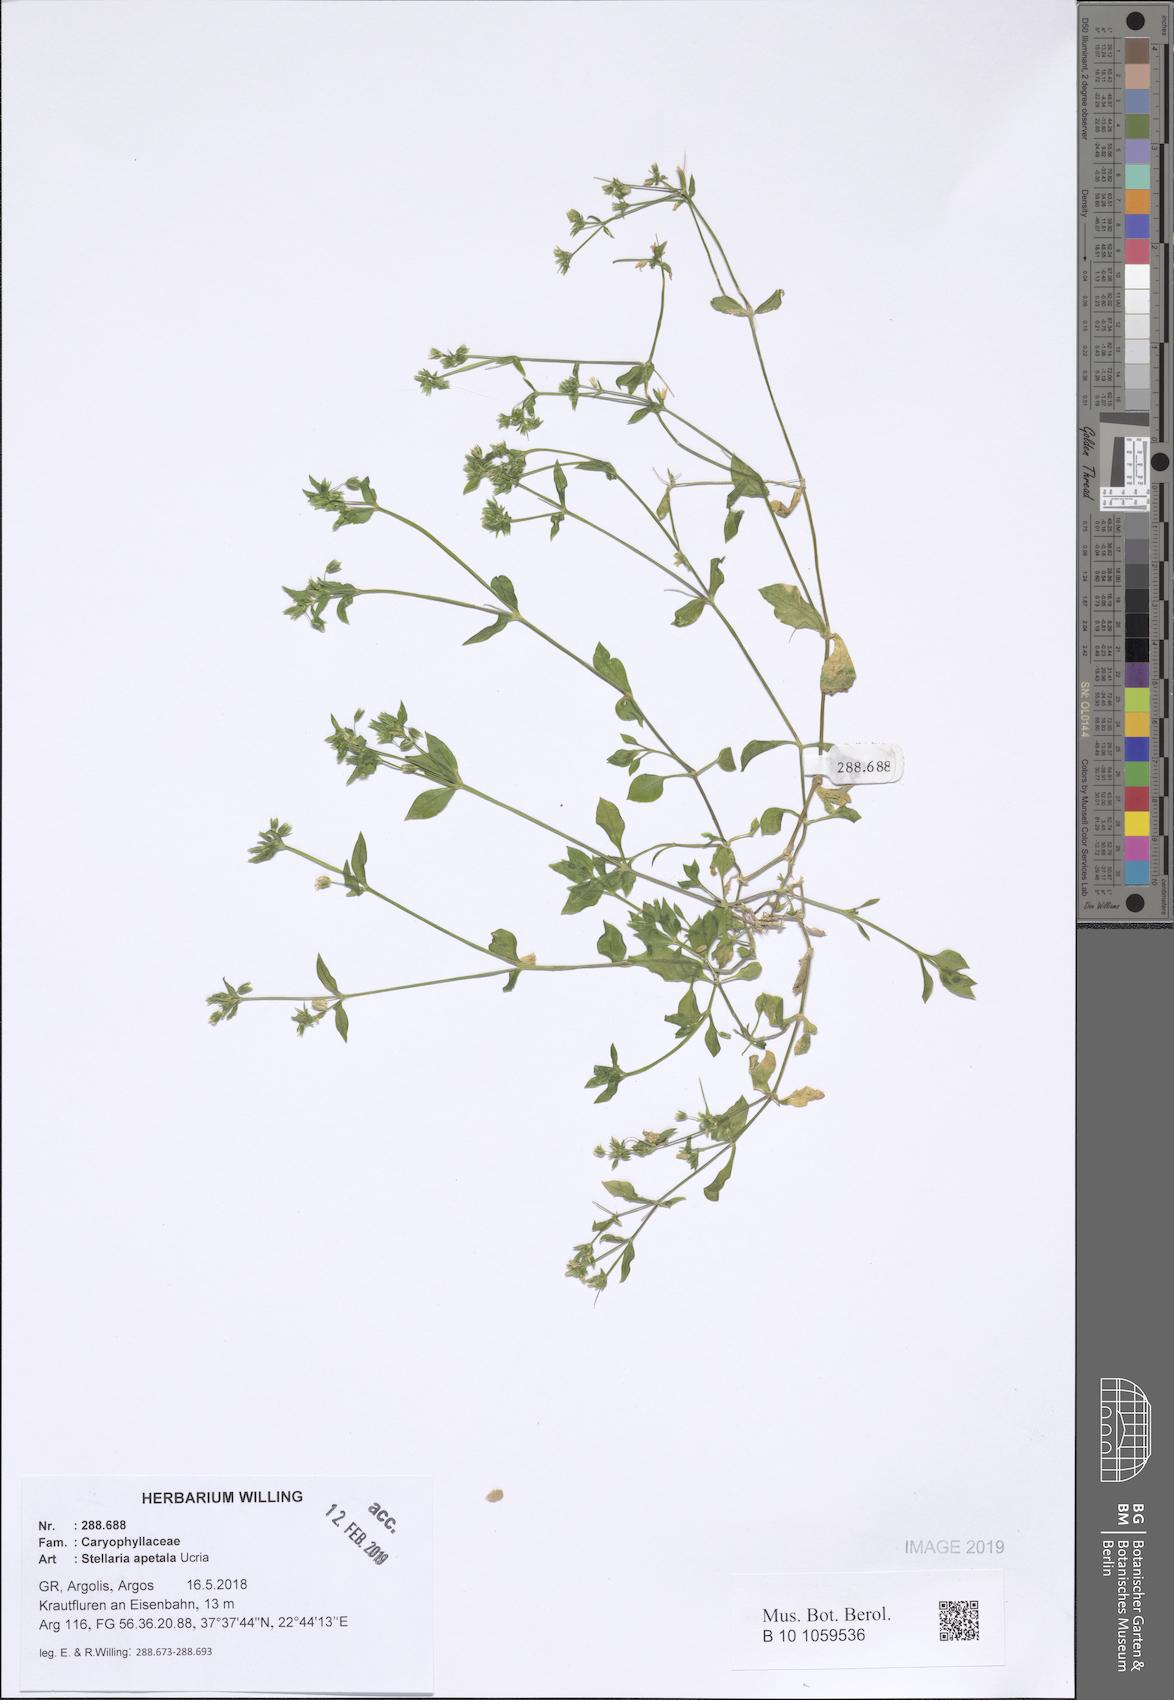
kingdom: Plantae
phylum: Tracheophyta
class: Magnoliopsida
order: Caryophyllales
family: Caryophyllaceae
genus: Stellaria
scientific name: Stellaria apetala
